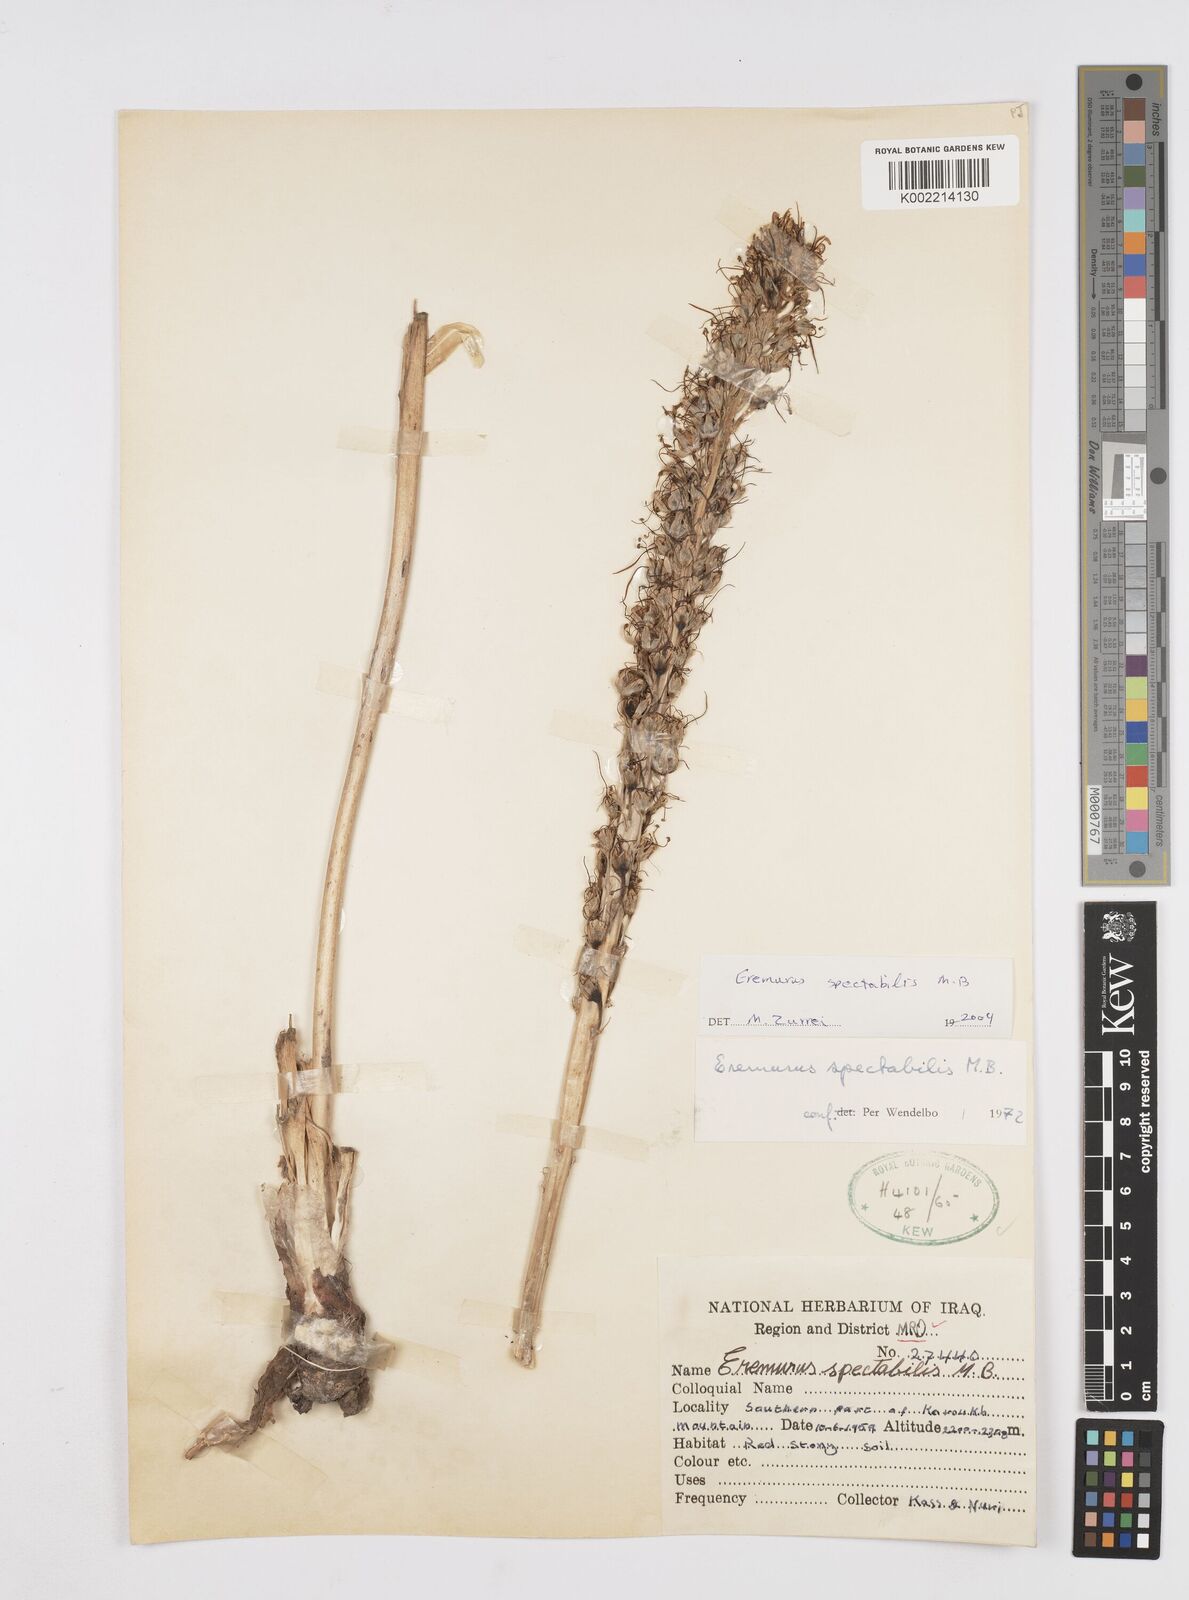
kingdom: Plantae
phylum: Tracheophyta
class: Liliopsida
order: Asparagales
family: Asphodelaceae
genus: Eremurus
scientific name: Eremurus spectabilis
